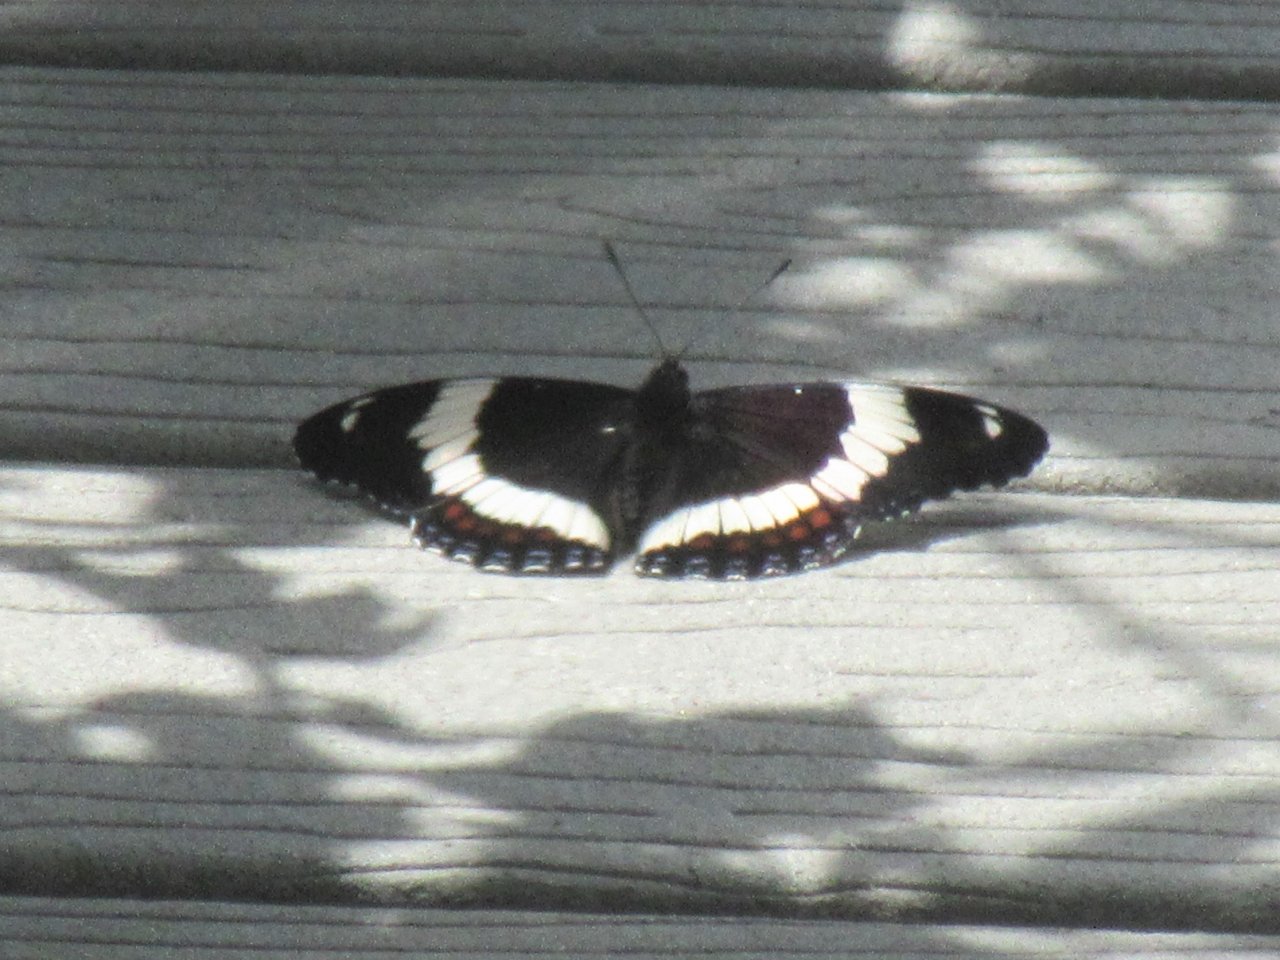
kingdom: Animalia
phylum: Arthropoda
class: Insecta
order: Lepidoptera
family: Nymphalidae
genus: Limenitis
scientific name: Limenitis arthemis
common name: Red-spotted Admiral
